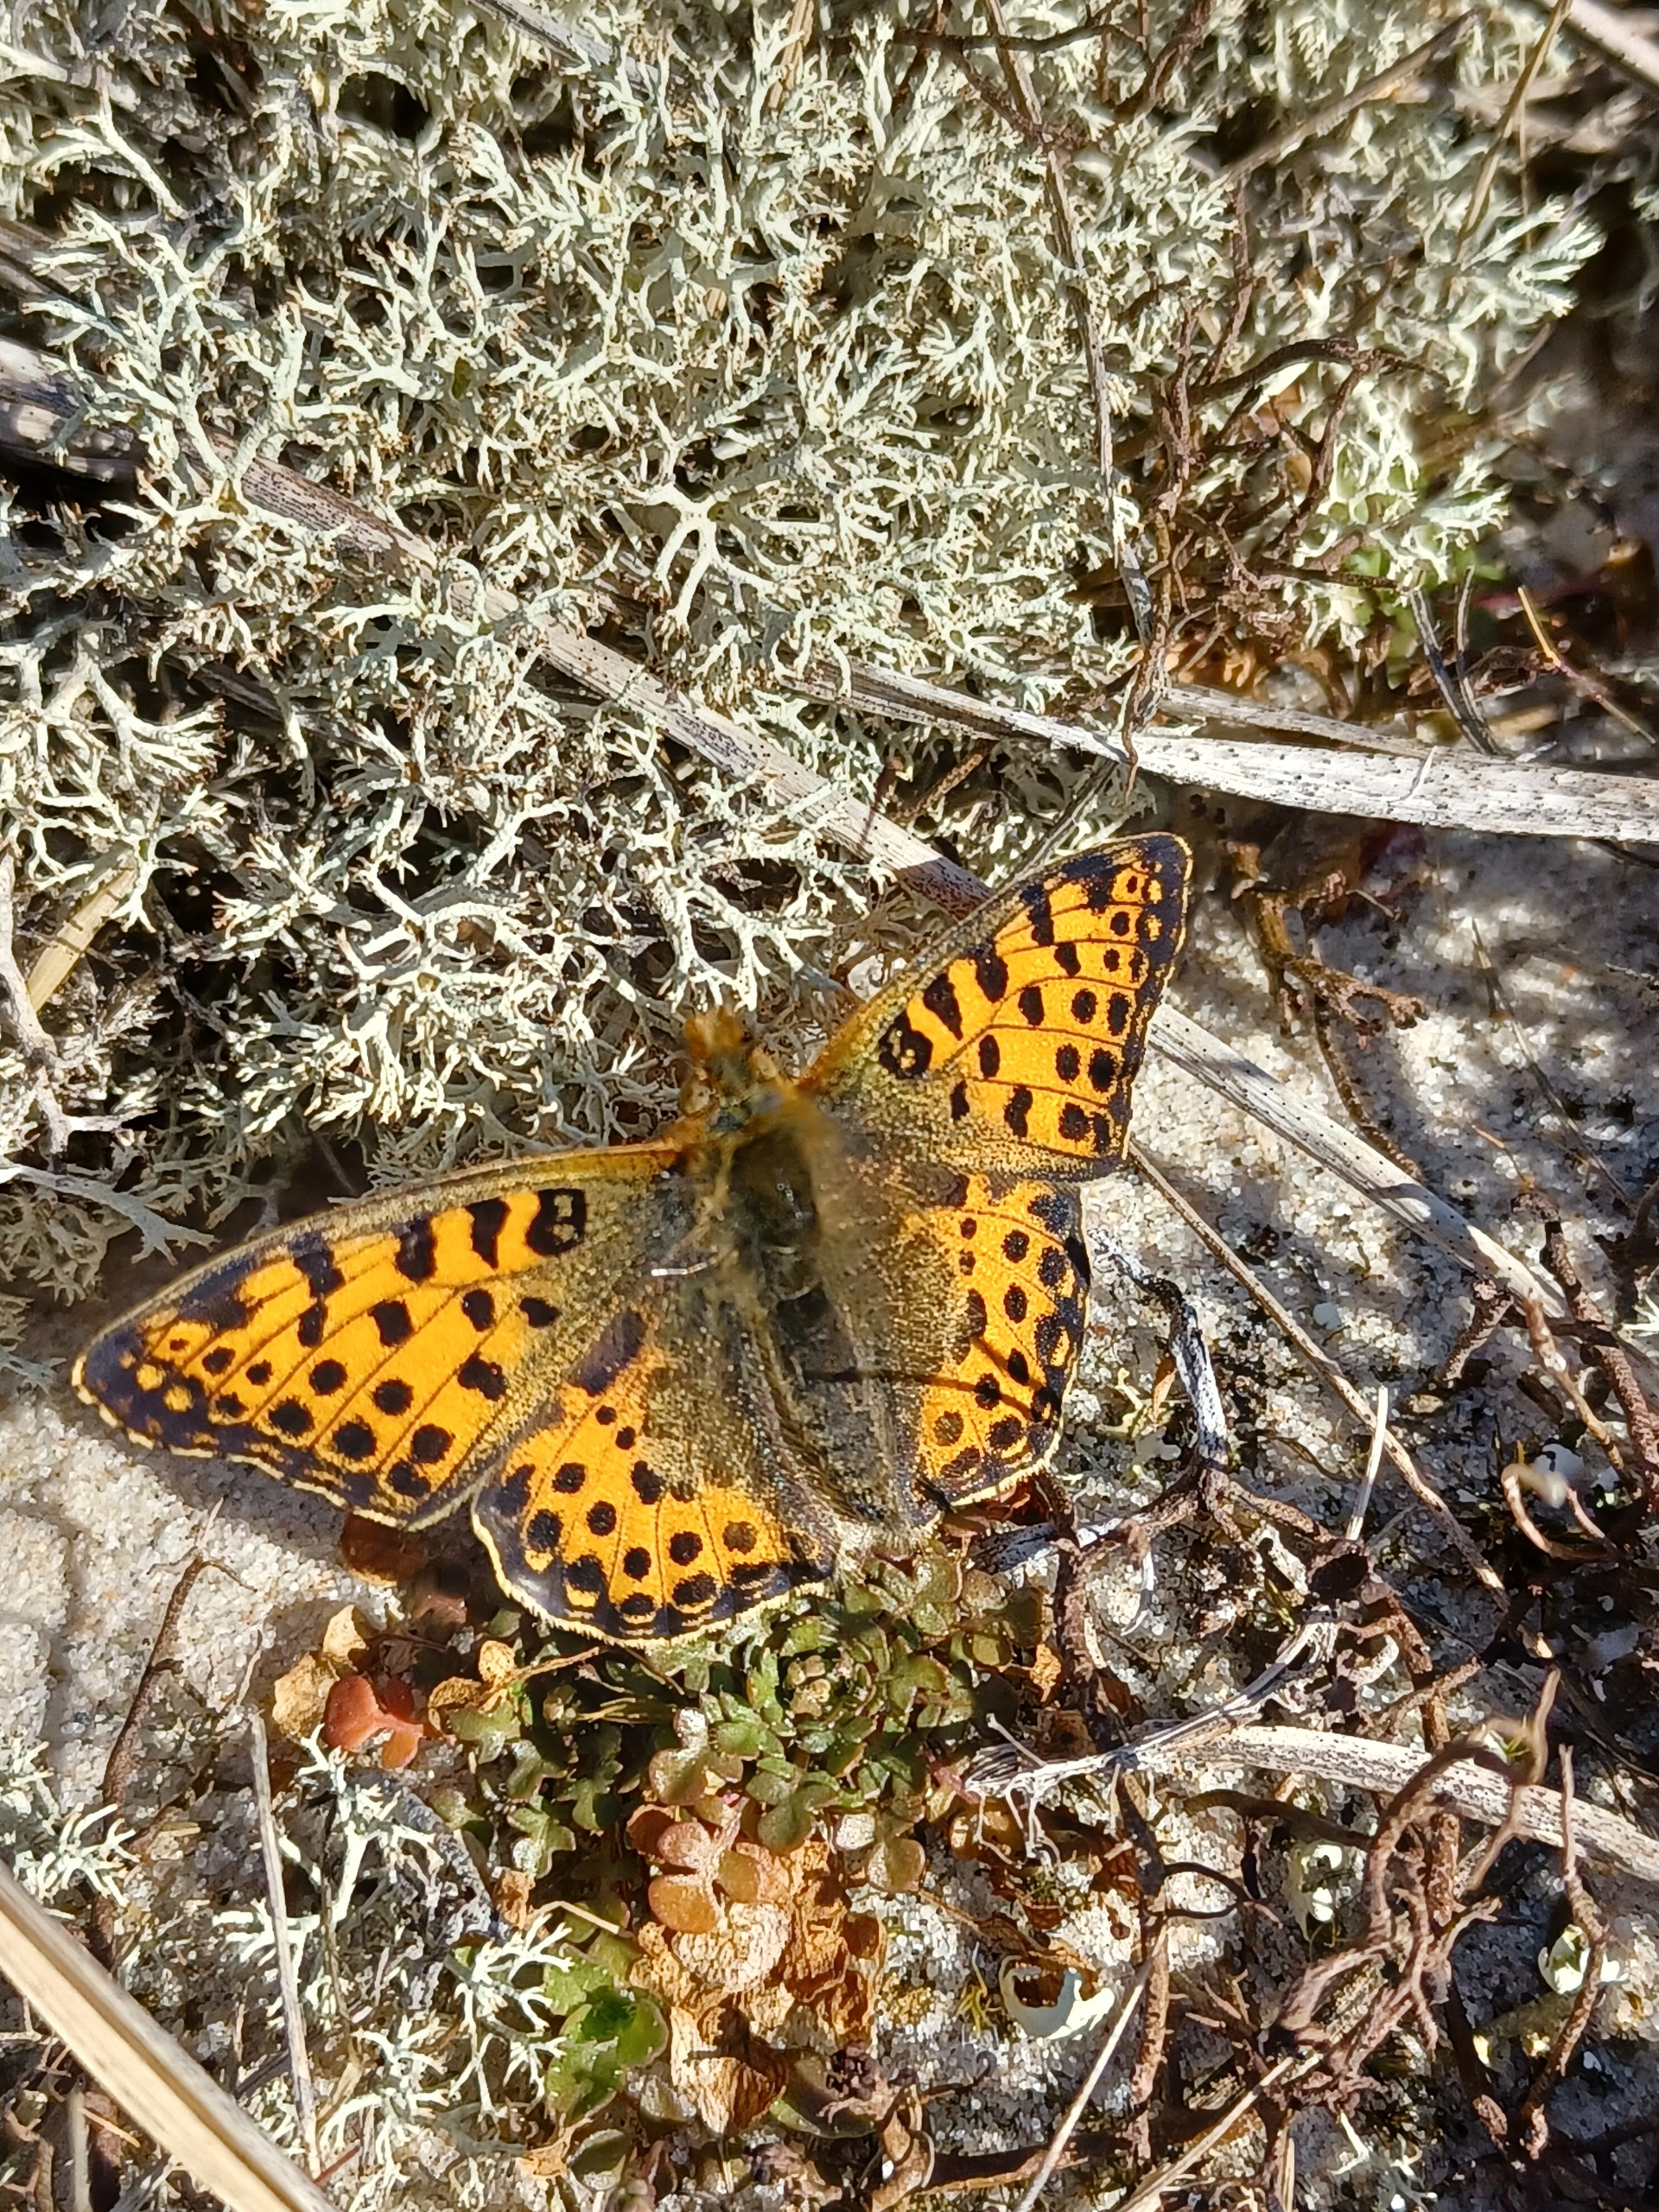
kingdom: Animalia
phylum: Arthropoda
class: Insecta
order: Lepidoptera
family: Nymphalidae
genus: Issoria
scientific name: Issoria lathonia
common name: Storplettet perlemorsommerfugl
